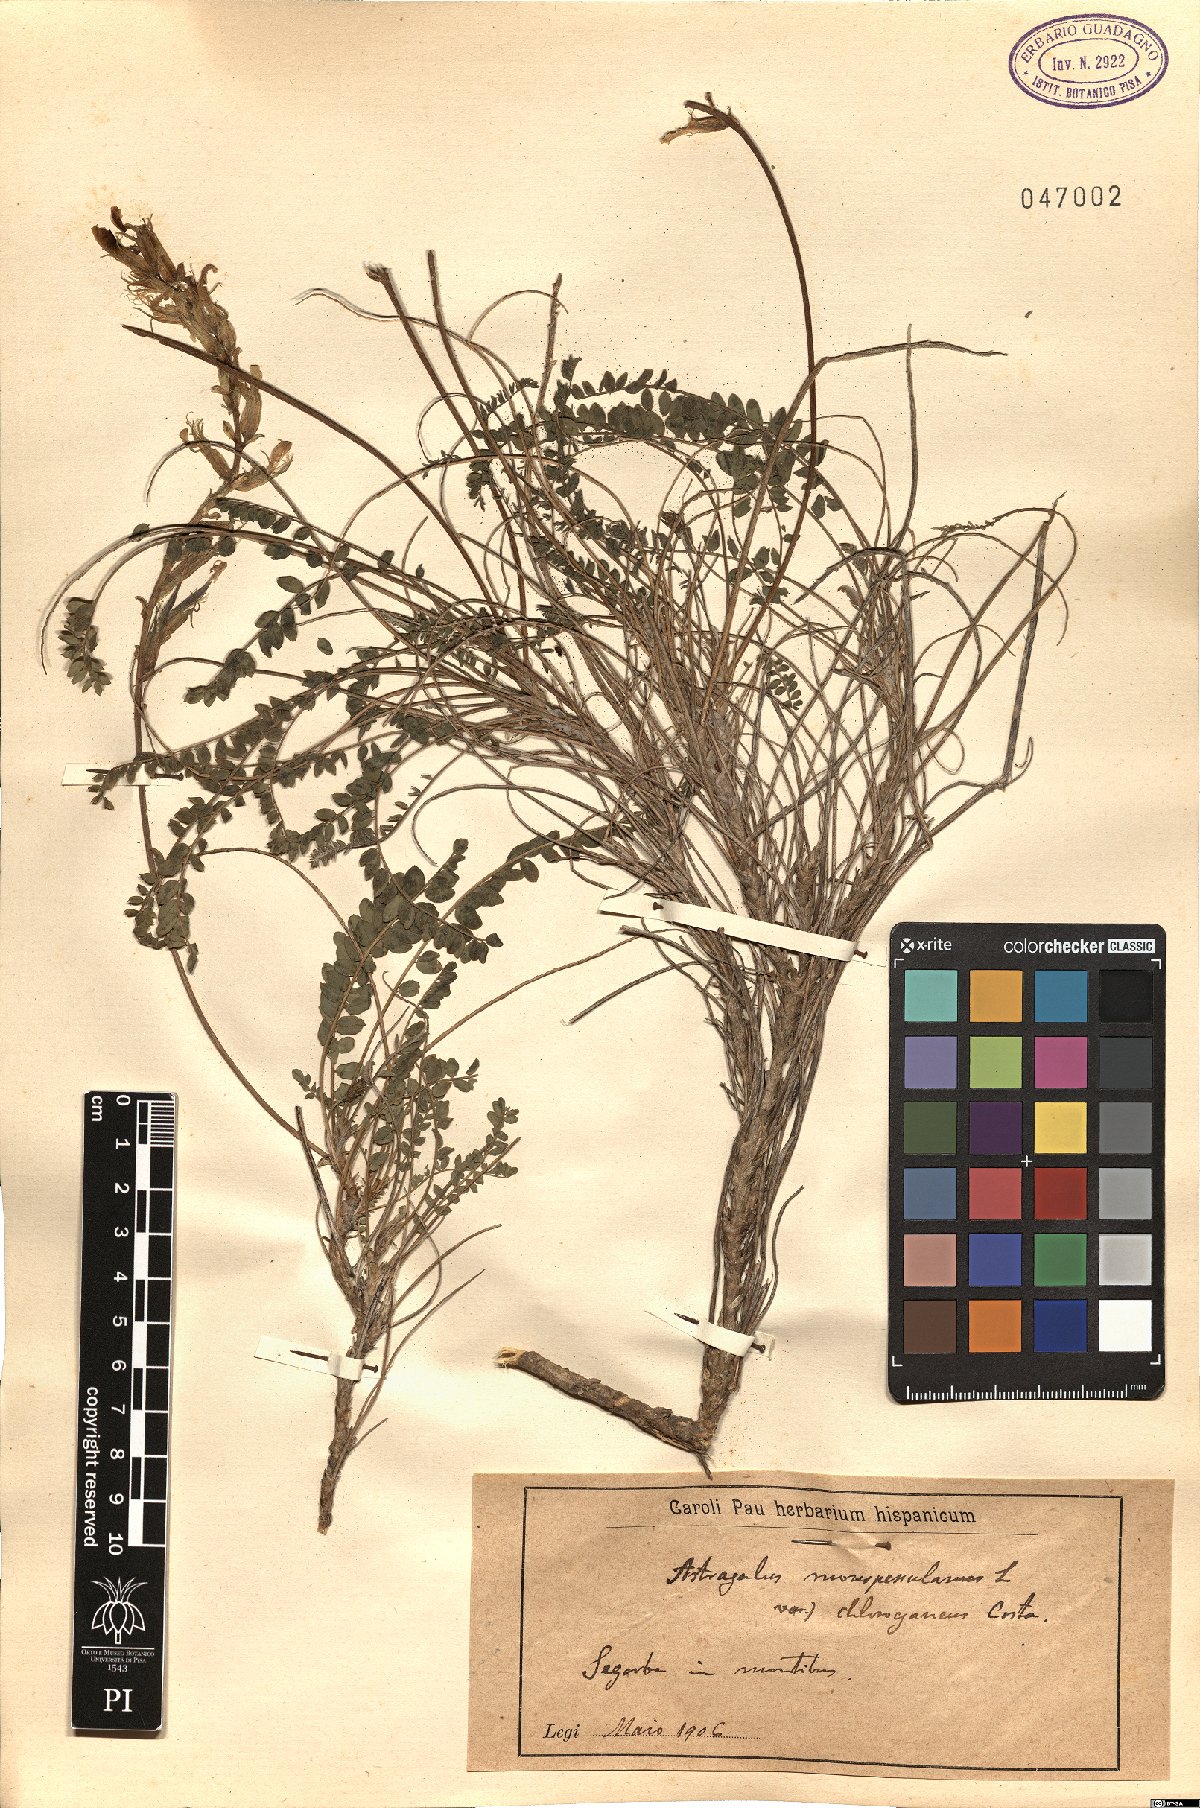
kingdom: Plantae
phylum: Tracheophyta
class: Magnoliopsida
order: Fabales
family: Fabaceae
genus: Astragalus
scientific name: Astragalus monspessulanus
